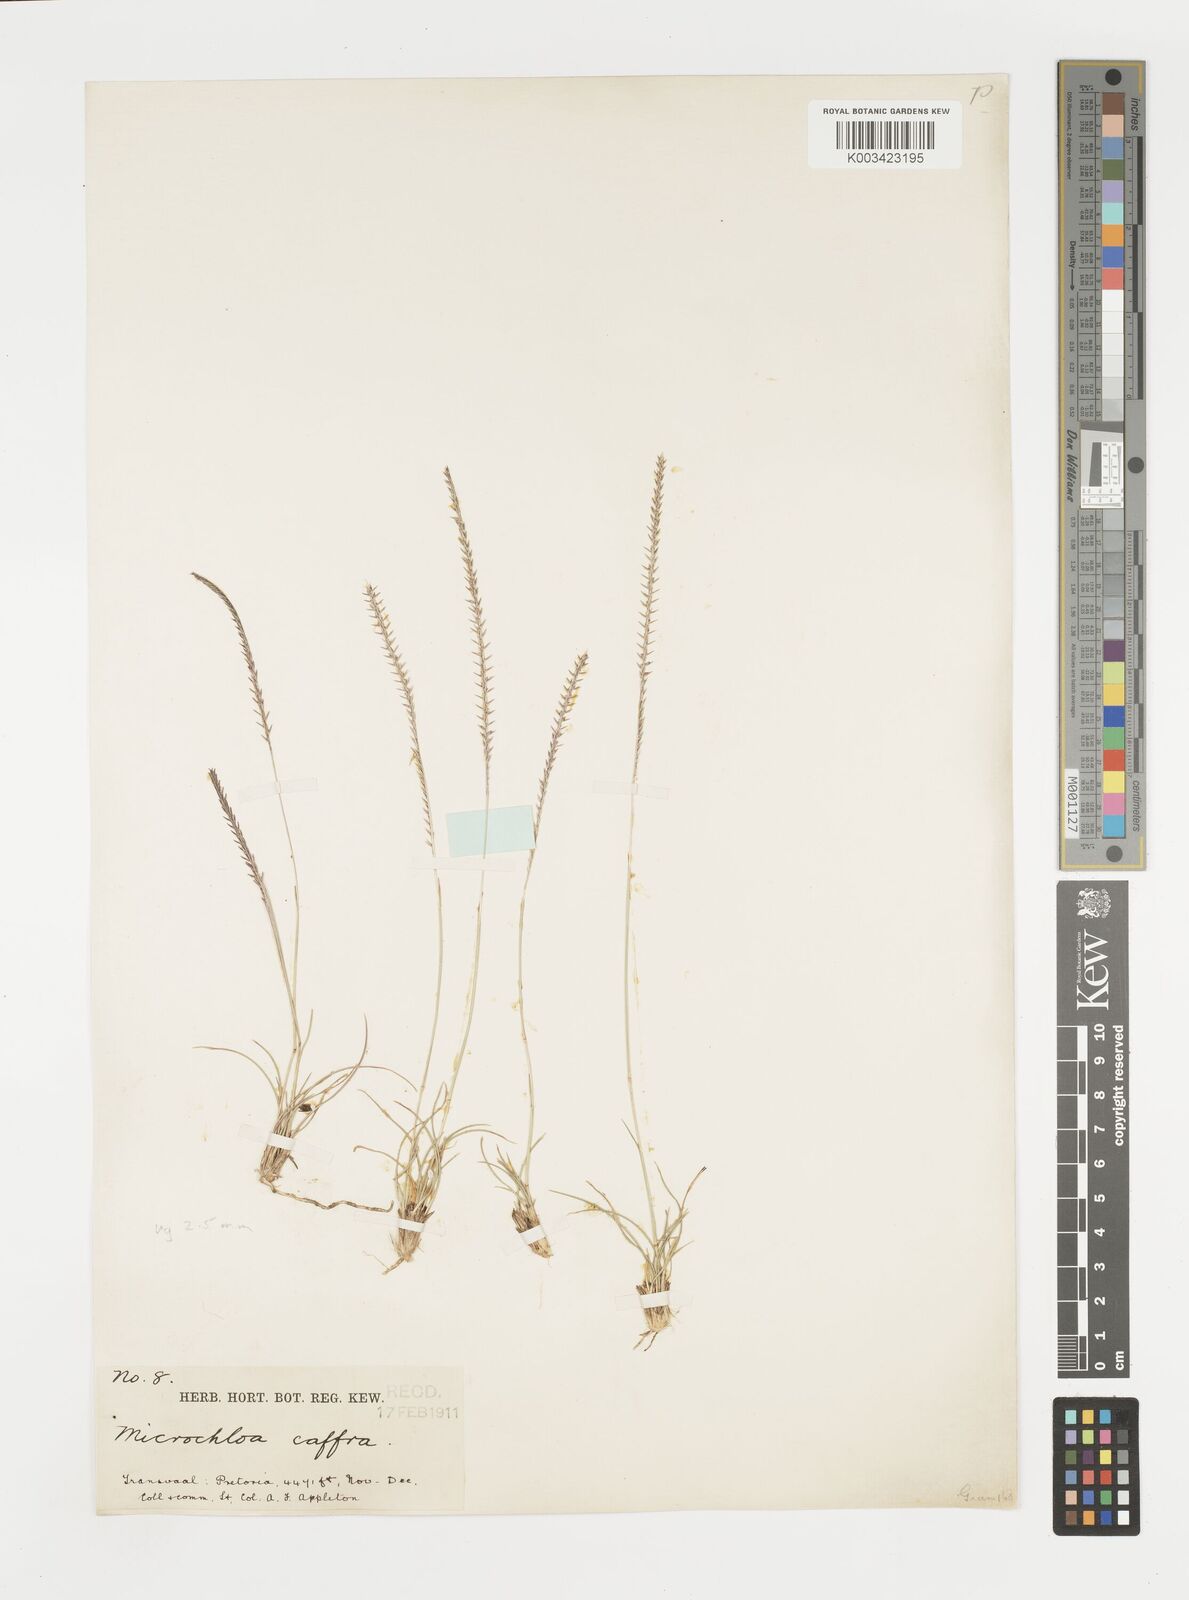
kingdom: Plantae
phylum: Tracheophyta
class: Liliopsida
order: Poales
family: Poaceae
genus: Microchloa
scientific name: Microchloa caffra
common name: Pincushion grass
